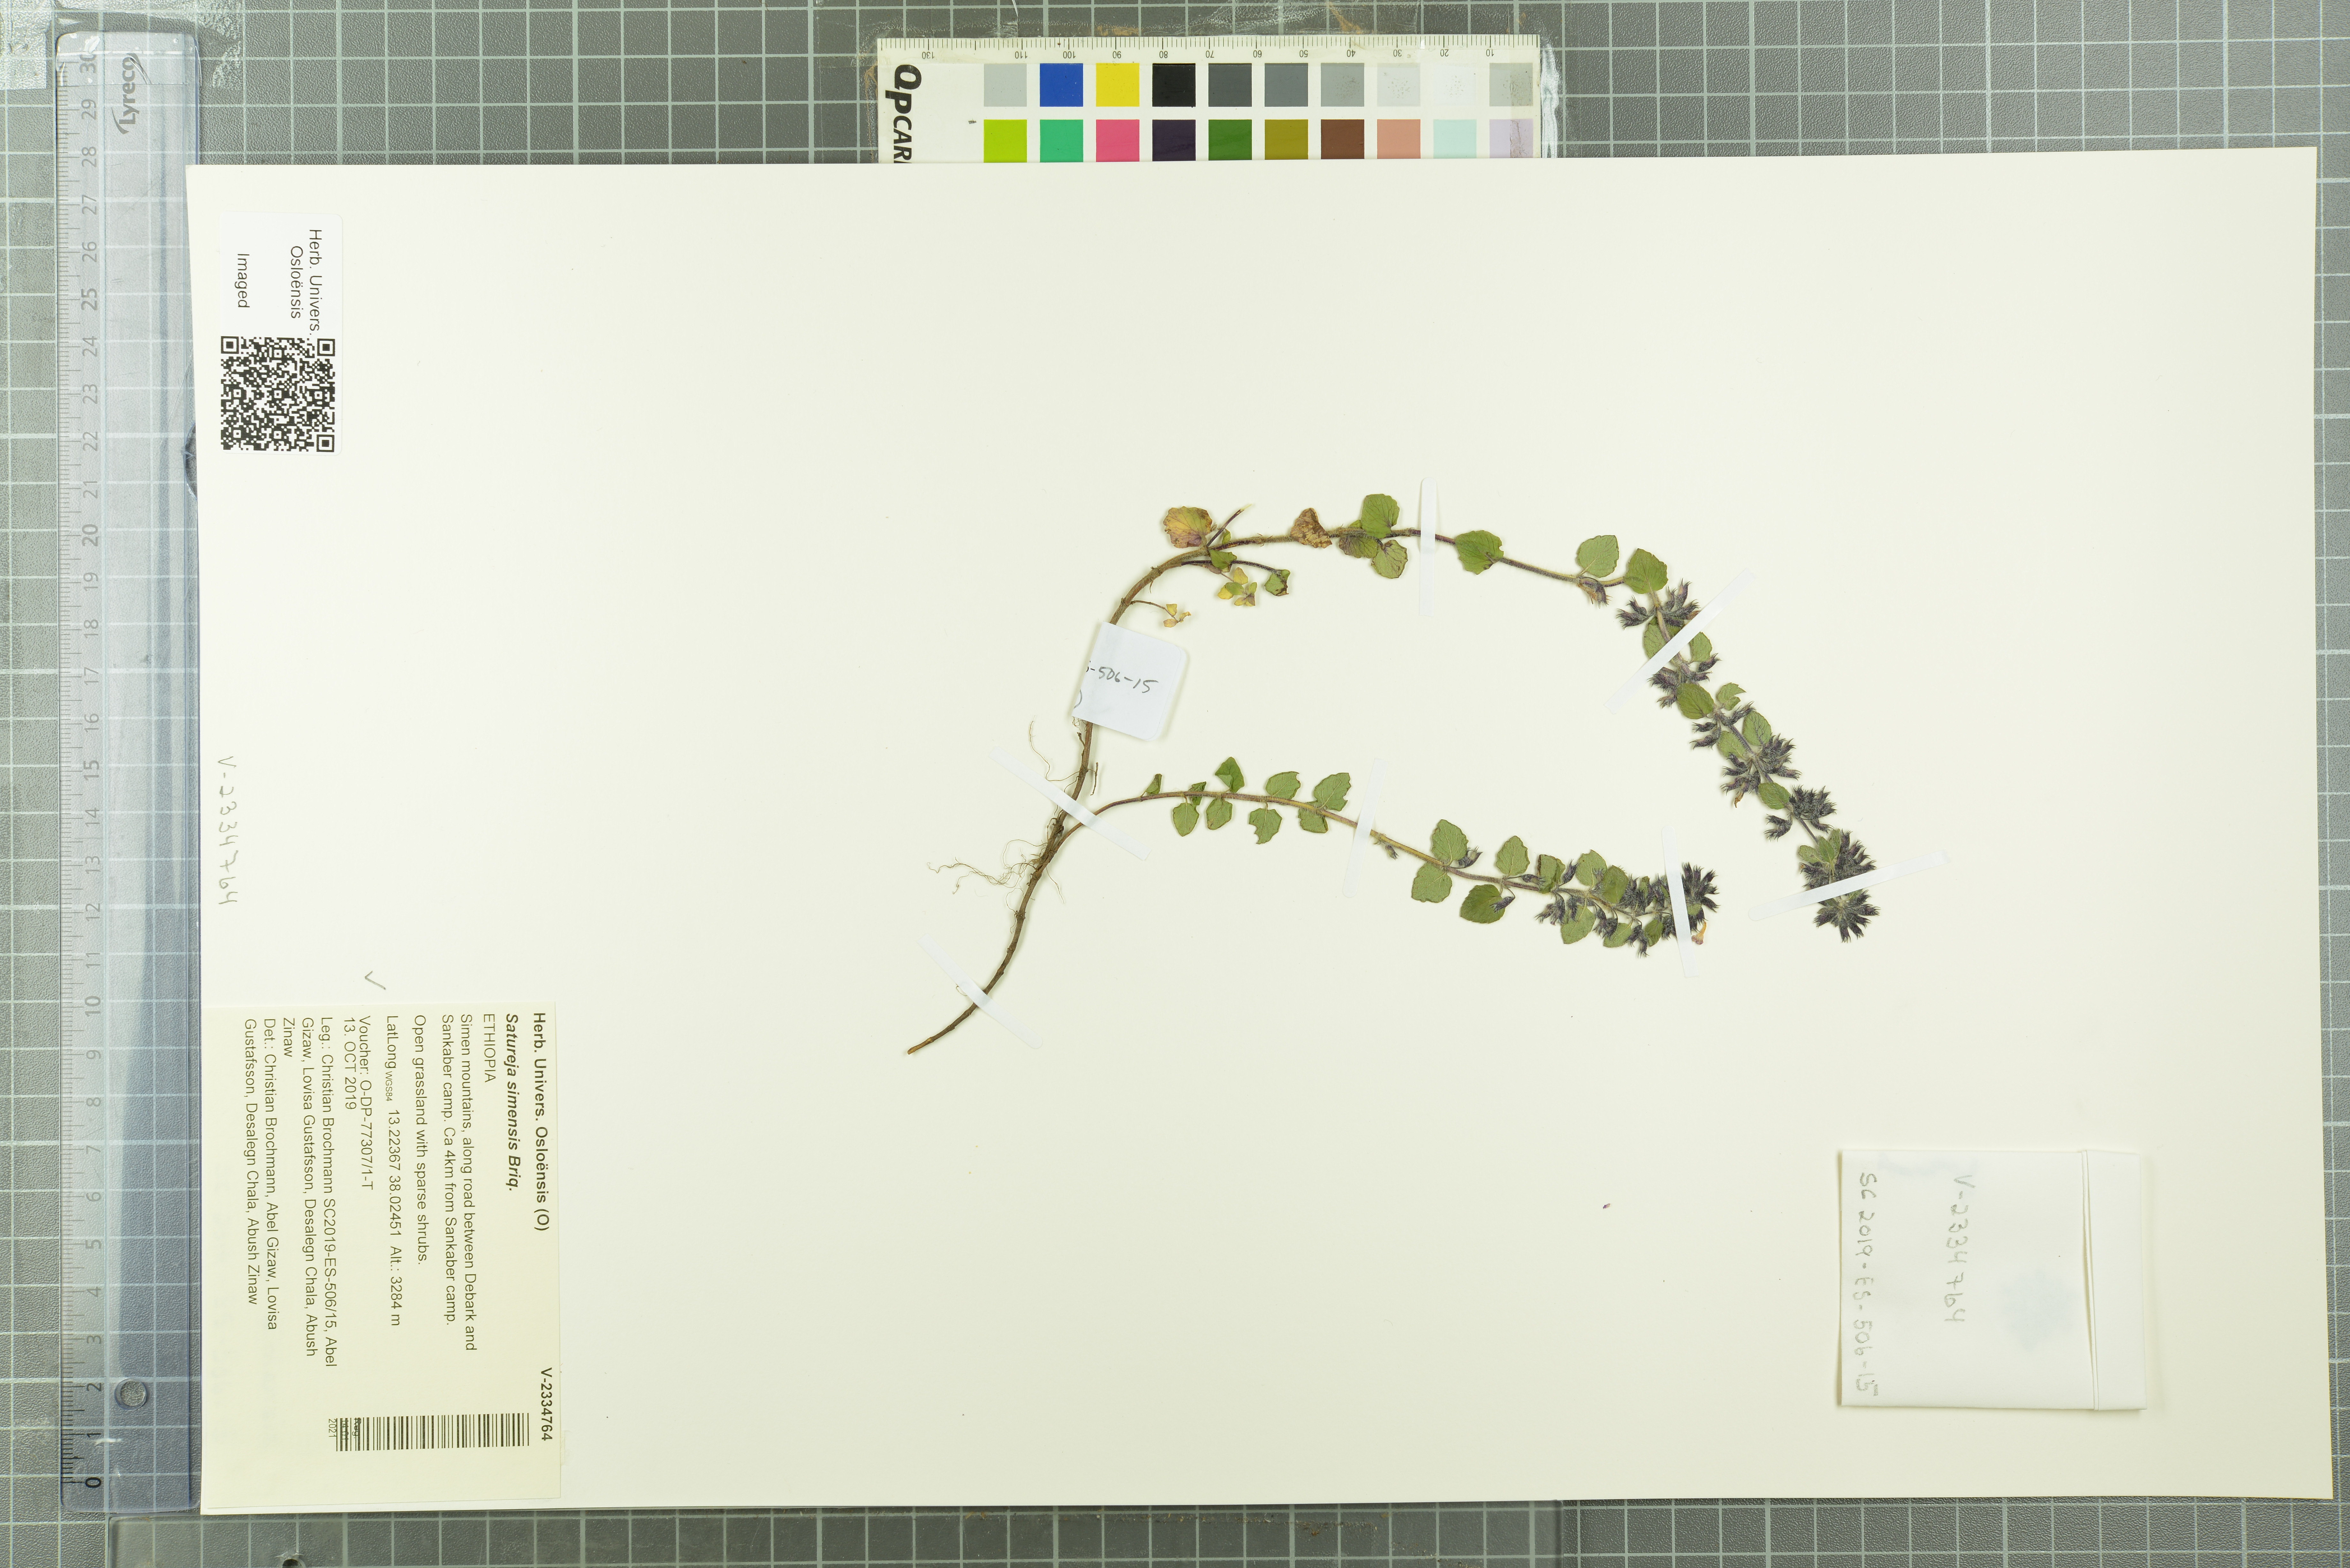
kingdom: Plantae
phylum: Tracheophyta
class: Magnoliopsida
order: Lamiales
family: Lamiaceae
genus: Clinopodium
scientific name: Clinopodium simense
